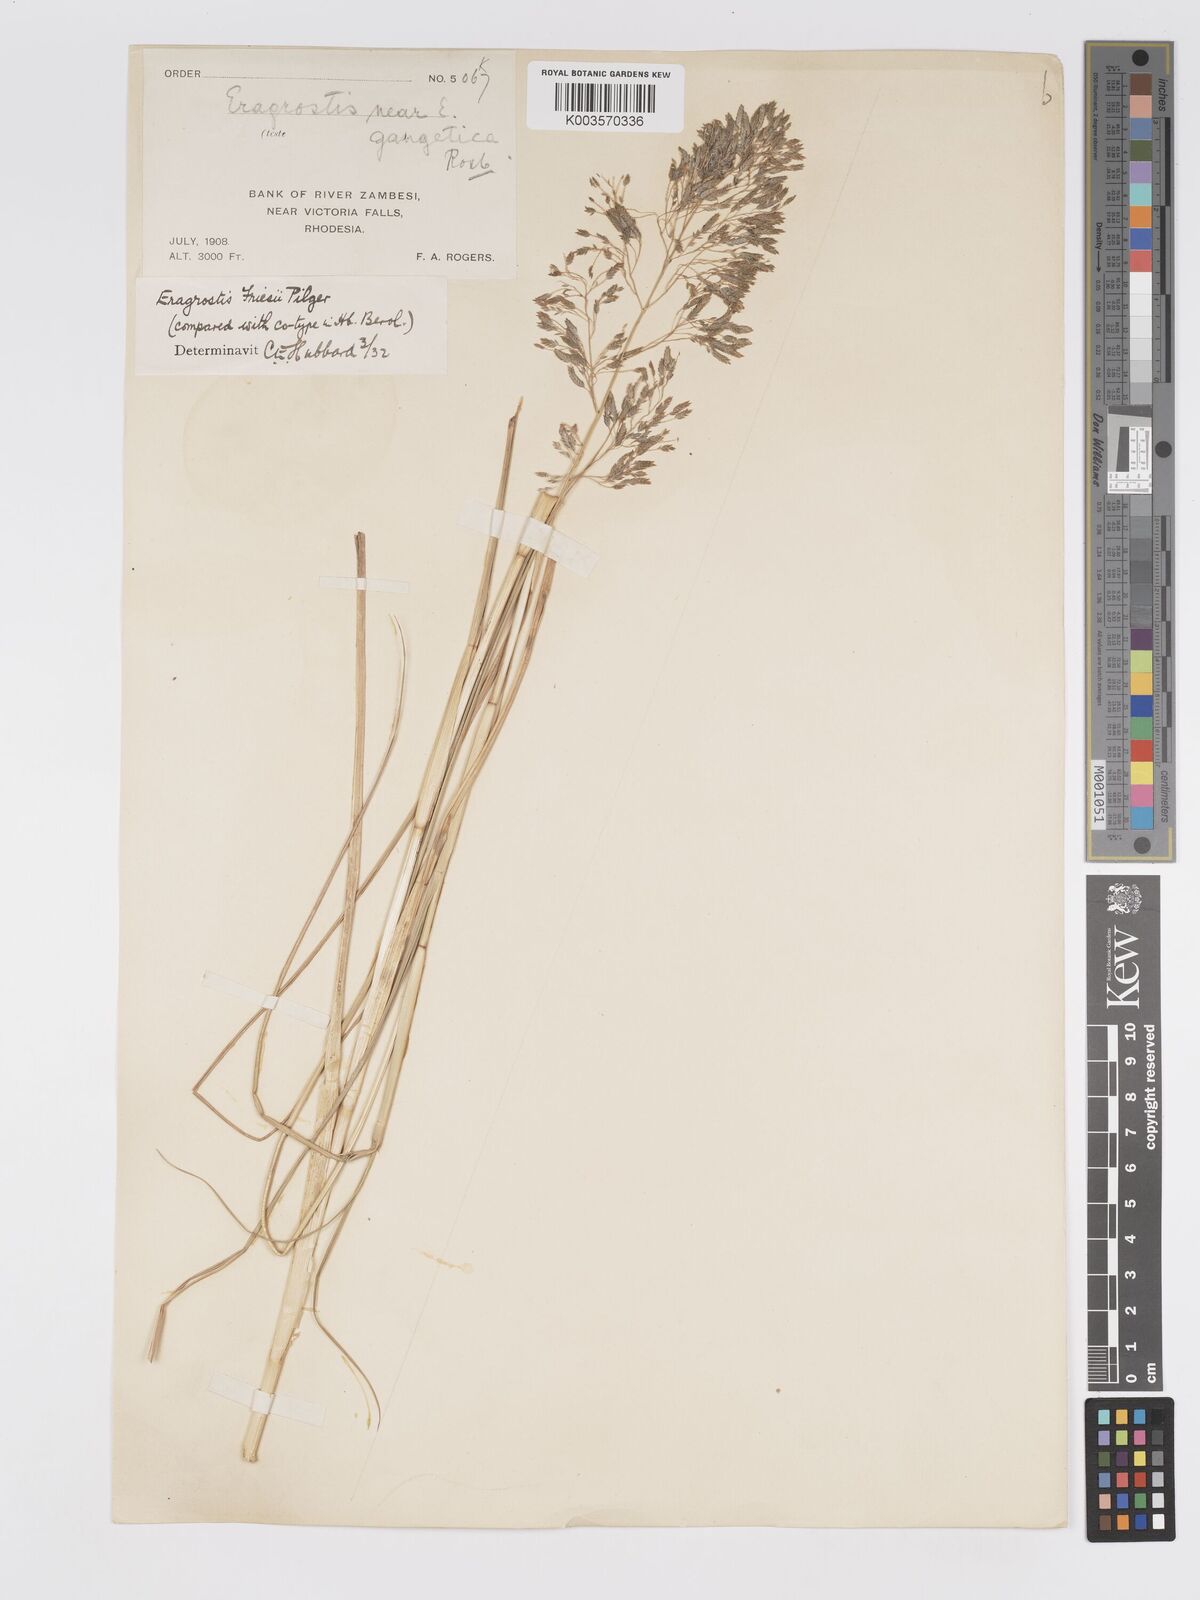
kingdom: Plantae
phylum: Tracheophyta
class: Liliopsida
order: Poales
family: Poaceae
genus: Eragrostis
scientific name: Eragrostis friesii
